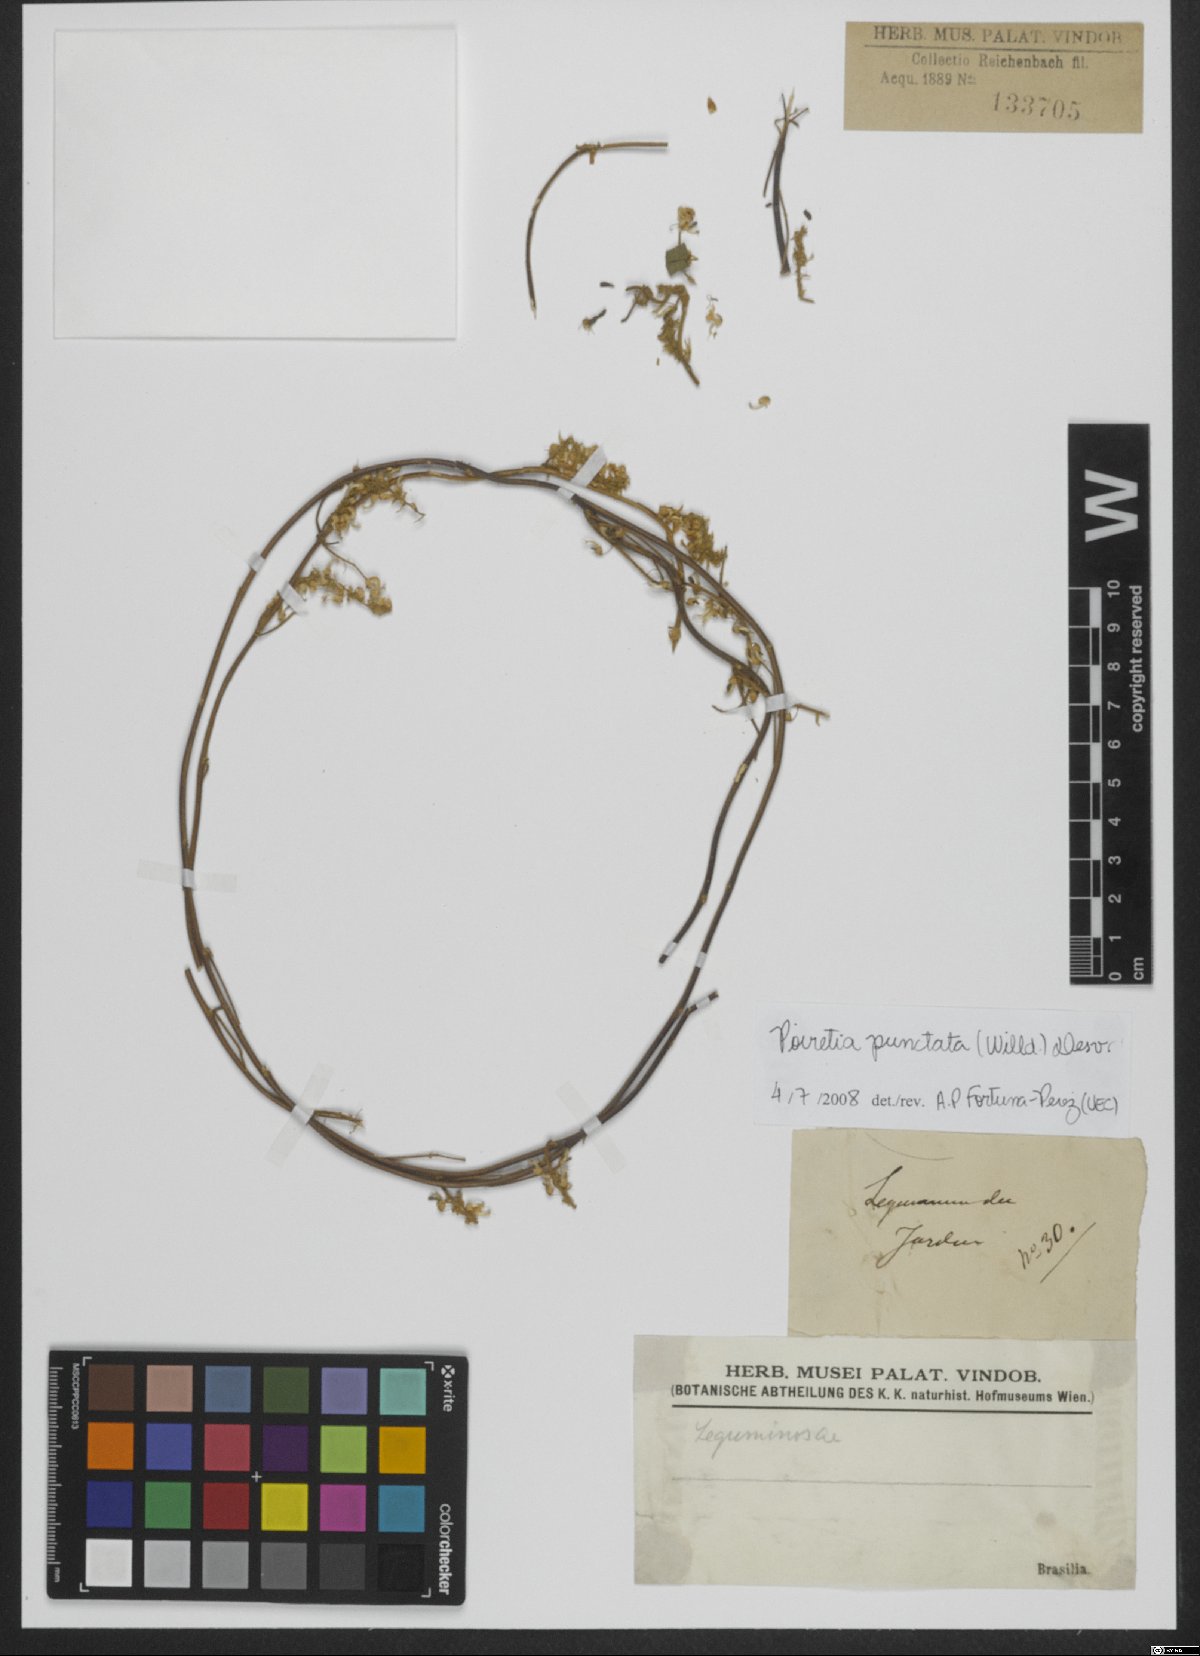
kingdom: Plantae
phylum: Tracheophyta
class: Magnoliopsida
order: Fabales
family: Fabaceae
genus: Poiretia
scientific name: Poiretia punctata
